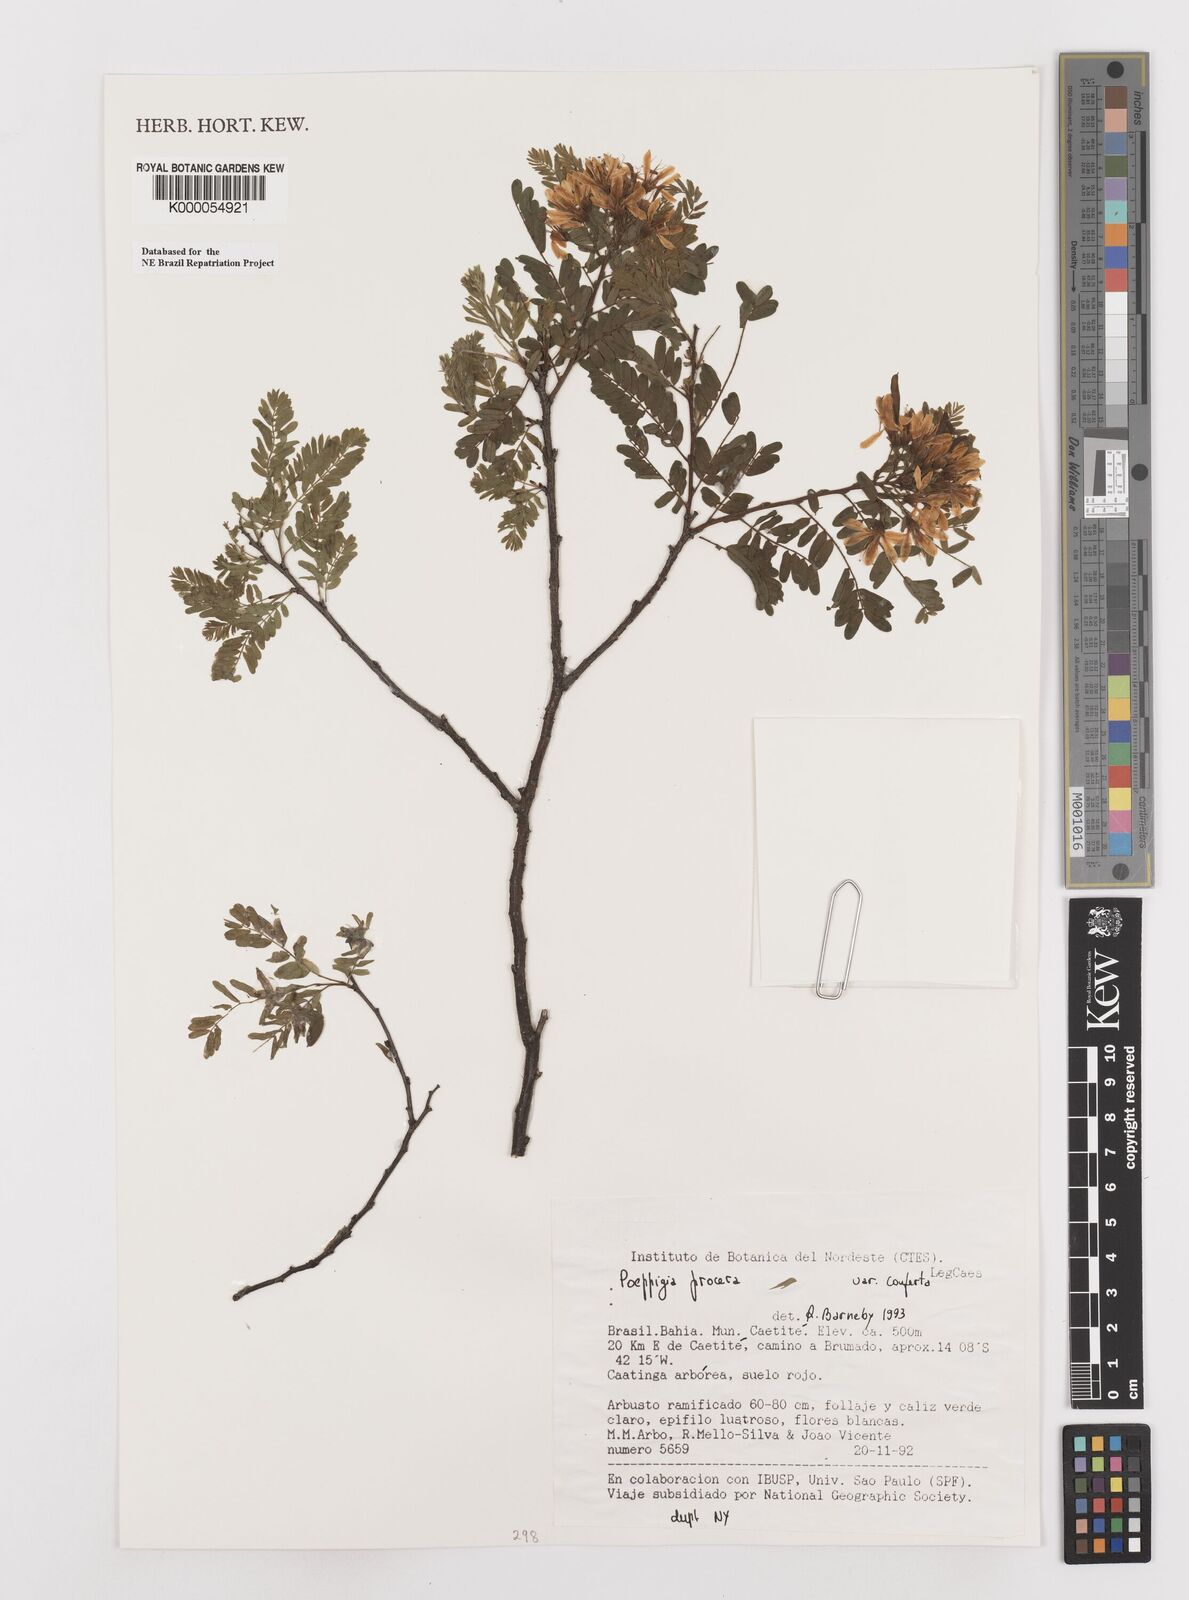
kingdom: Plantae
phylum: Tracheophyta
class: Magnoliopsida
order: Fabales
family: Fabaceae
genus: Poeppigia
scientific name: Poeppigia procera
